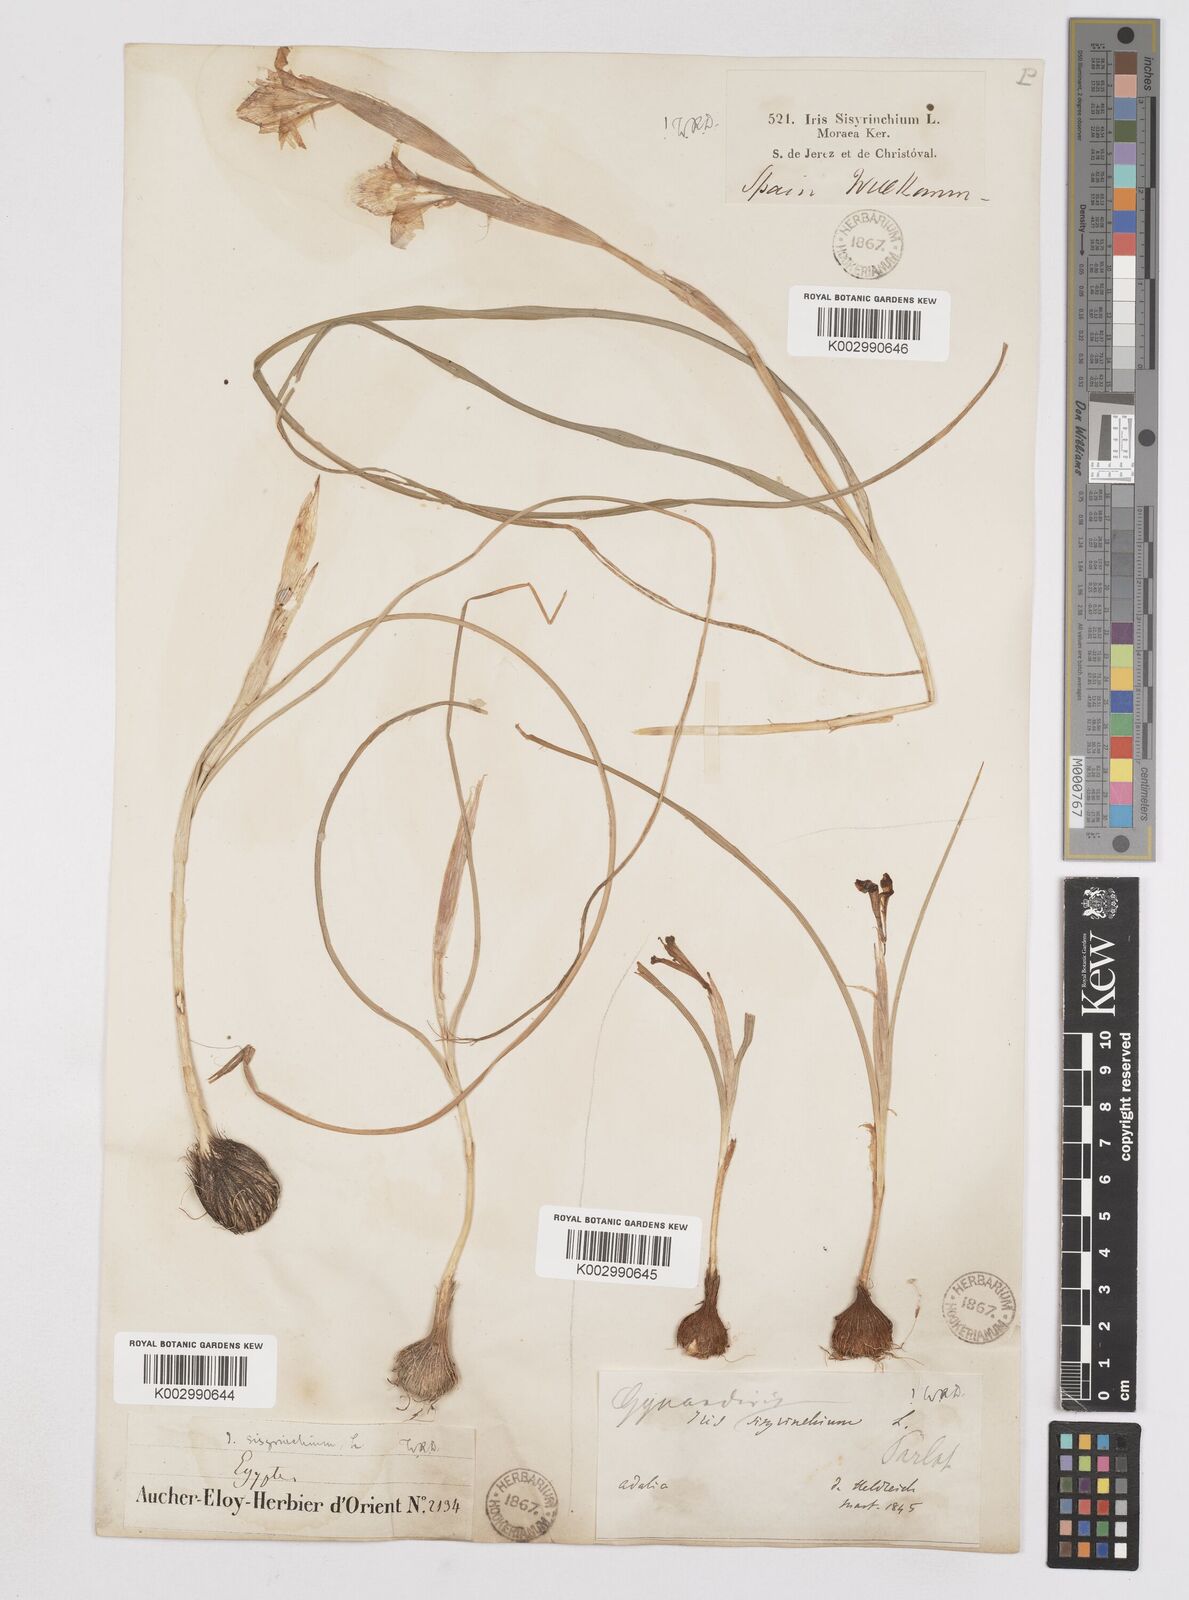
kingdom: Plantae
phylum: Tracheophyta
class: Liliopsida
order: Asparagales
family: Iridaceae
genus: Moraea
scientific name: Moraea sisyrinchium
